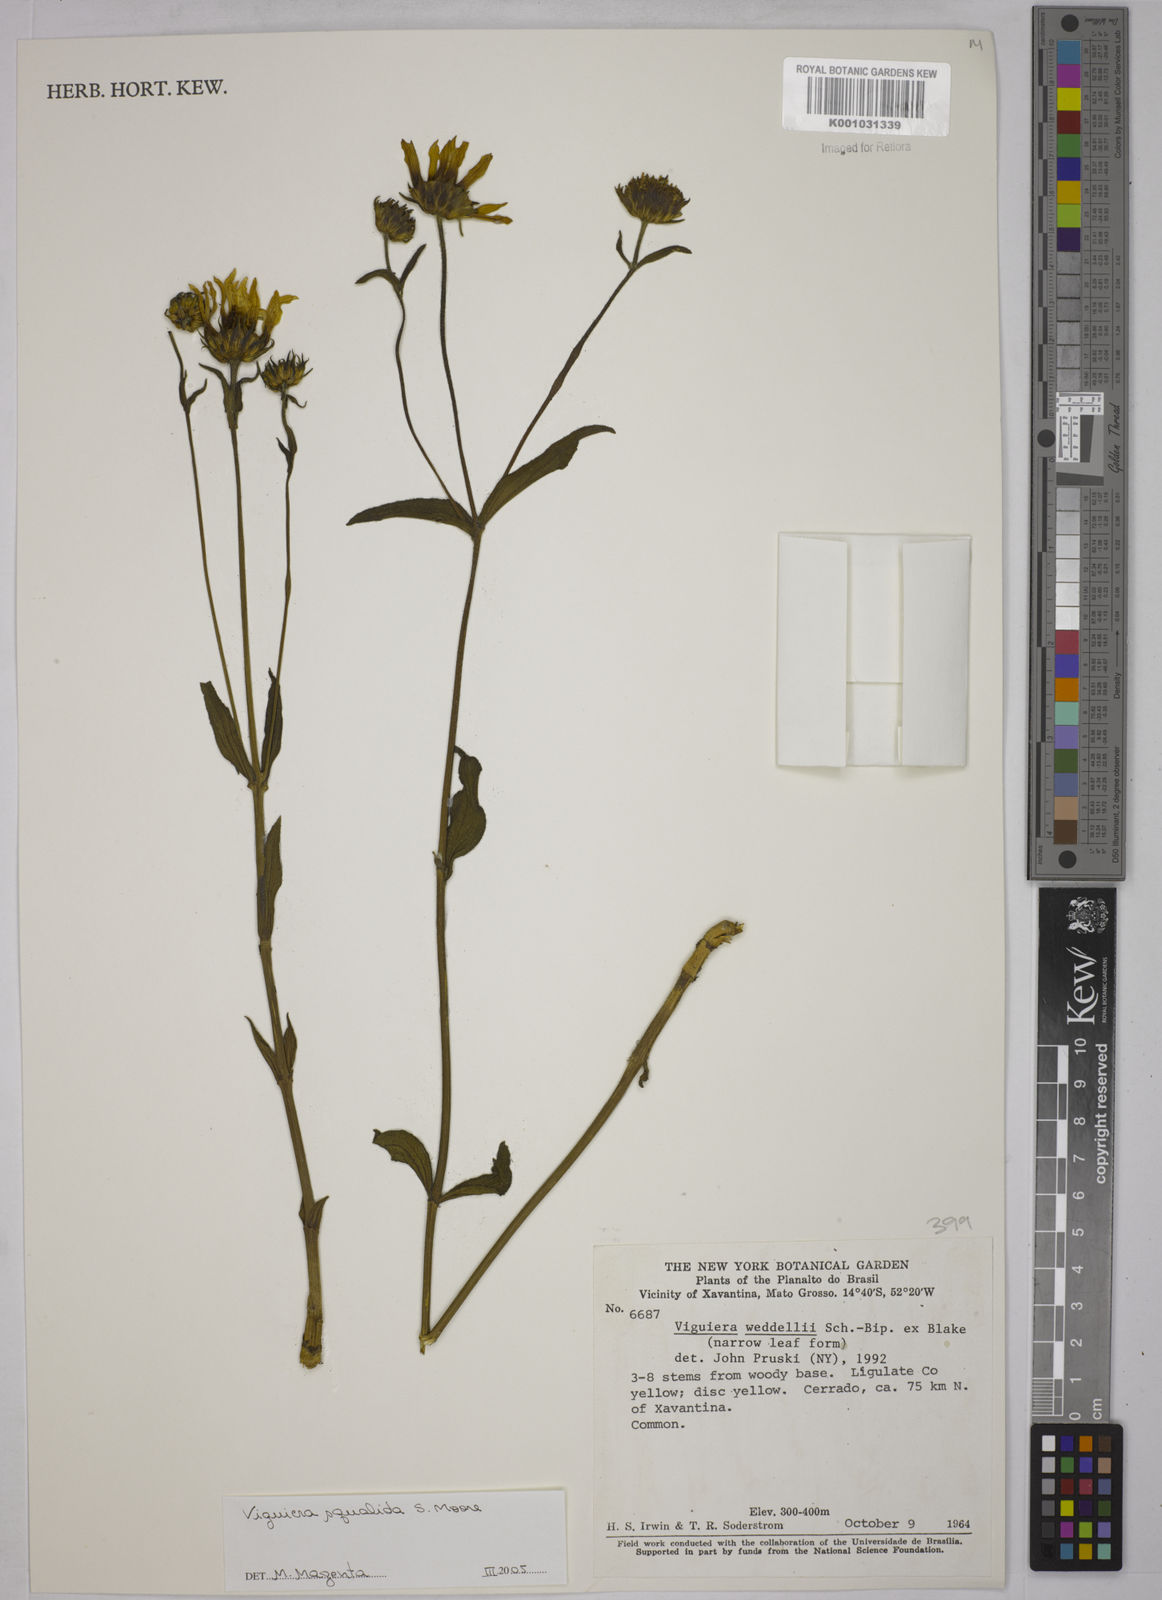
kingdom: Plantae
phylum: Tracheophyta
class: Magnoliopsida
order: Asterales
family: Asteraceae
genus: Aldama
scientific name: Aldama squalida
